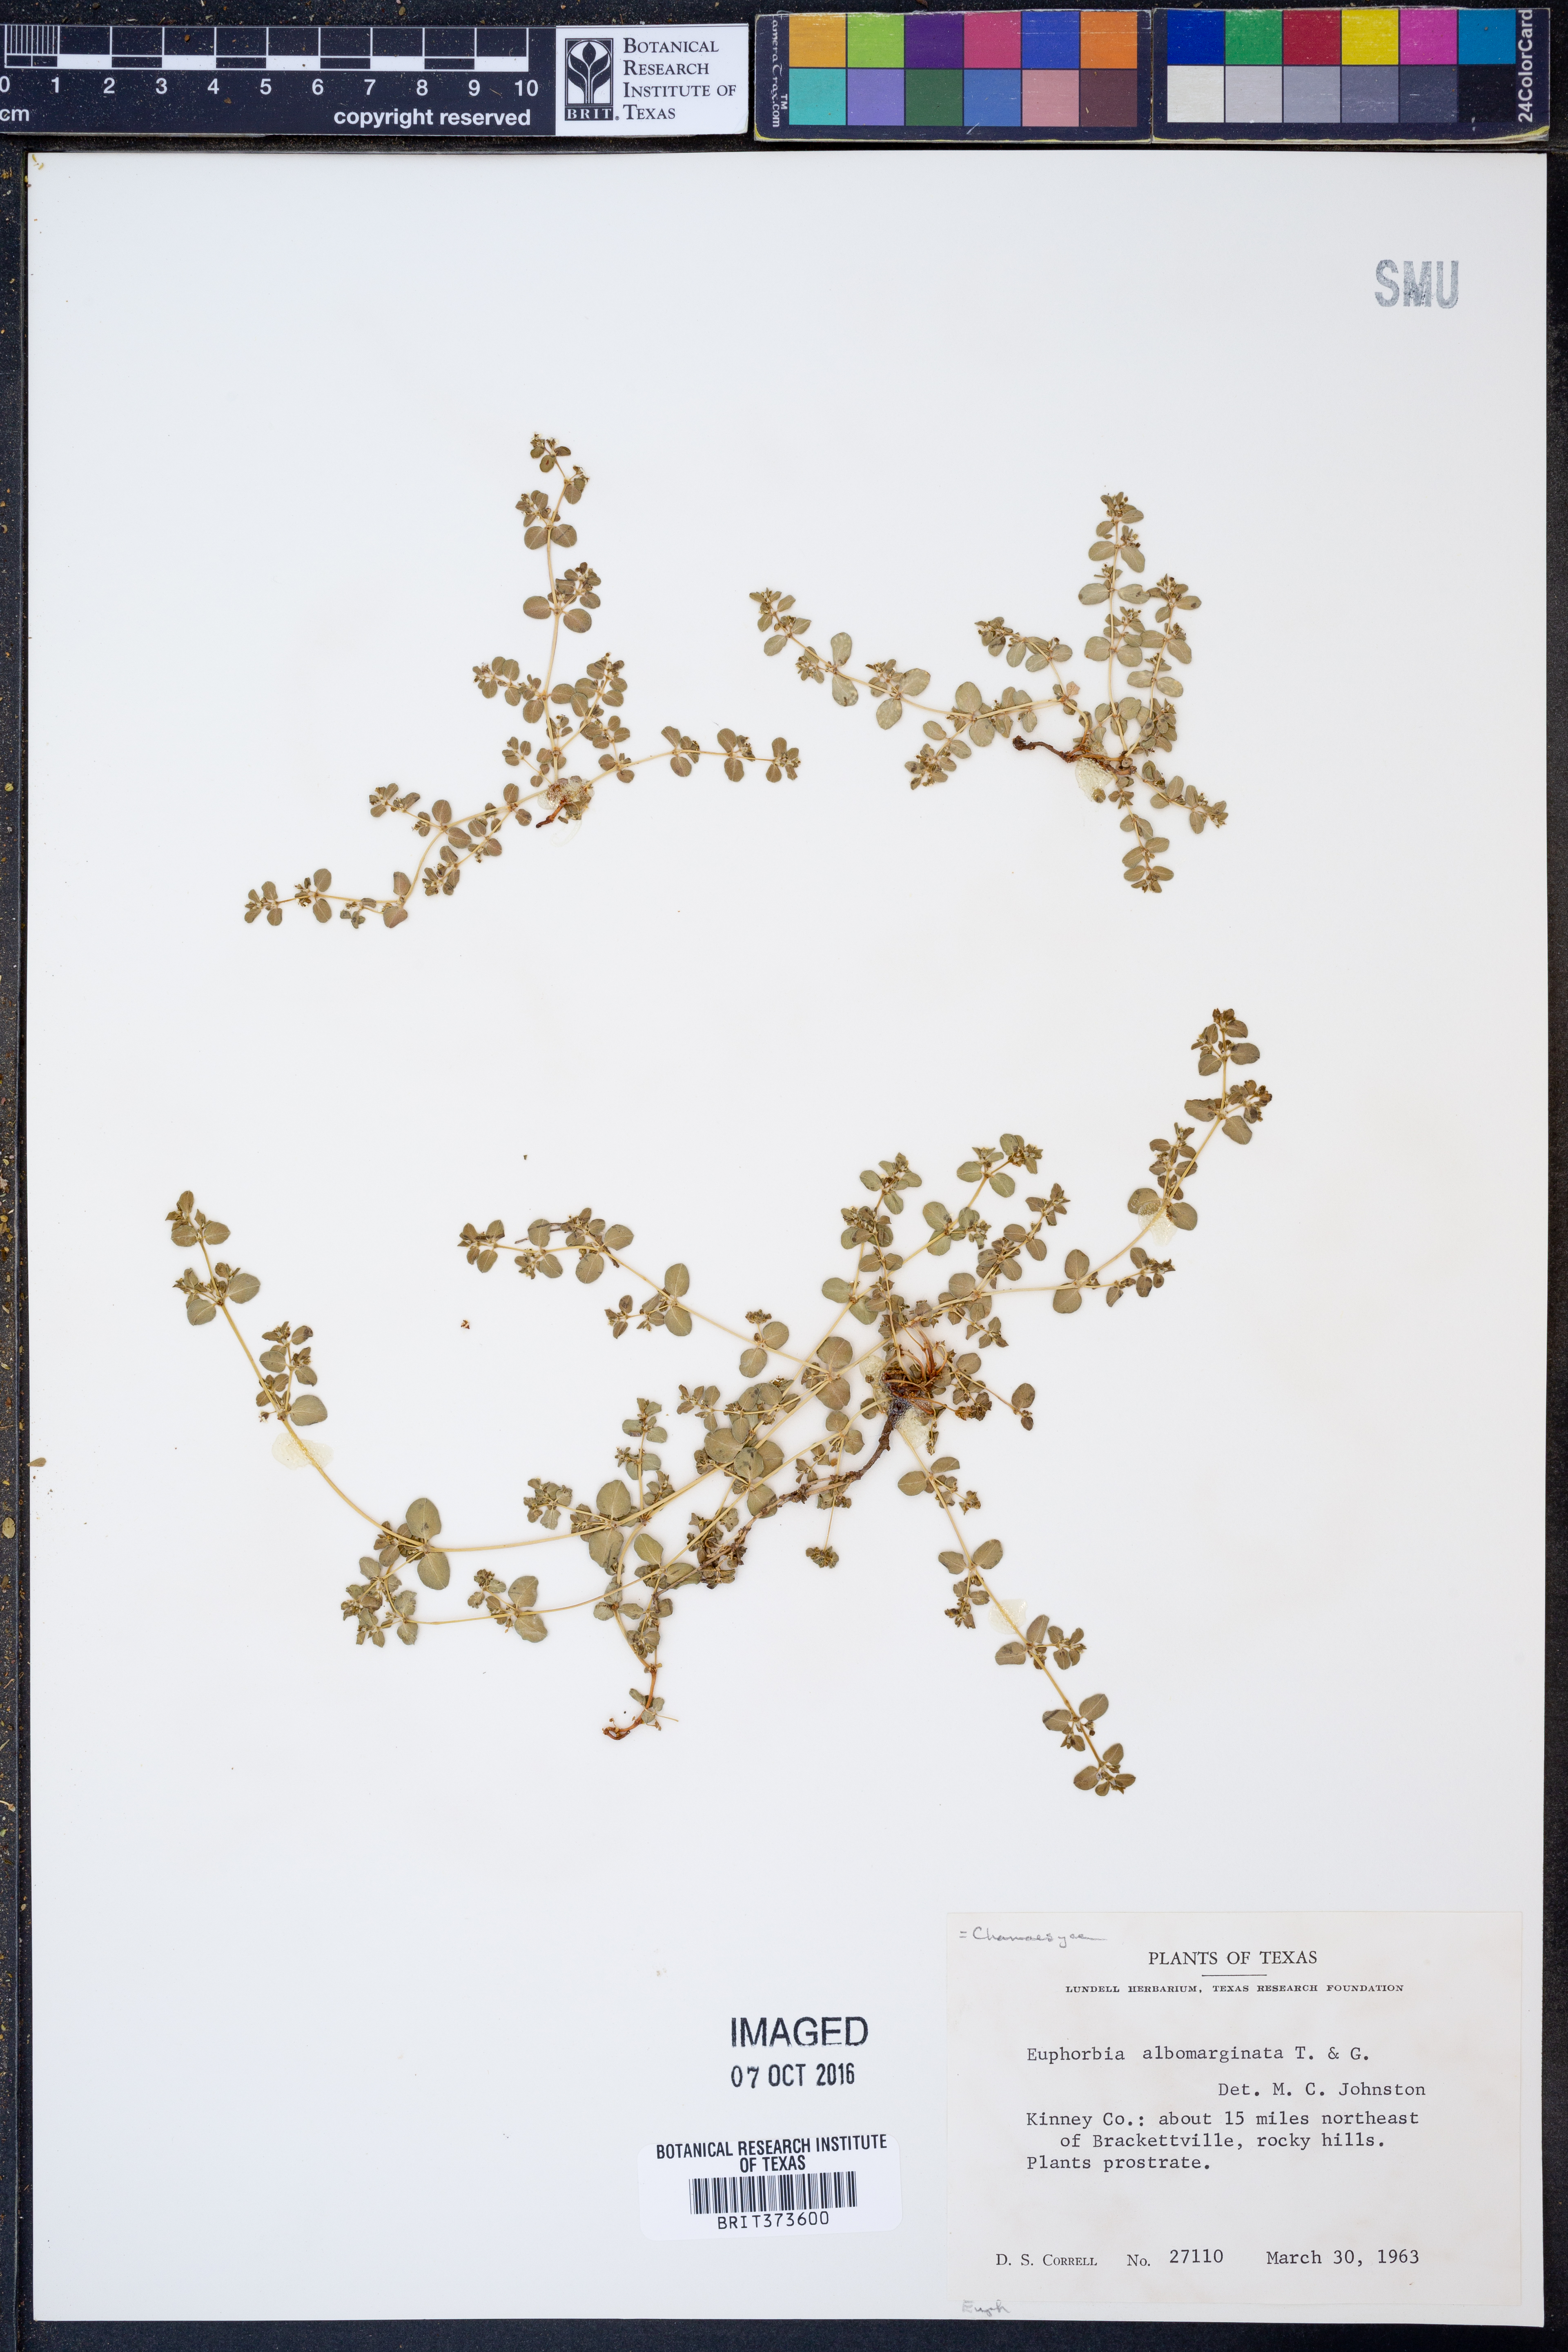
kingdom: Plantae
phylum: Tracheophyta
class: Magnoliopsida
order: Malpighiales
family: Euphorbiaceae
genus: Euphorbia
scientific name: Euphorbia albomarginata
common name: Whitemargin sandmat
